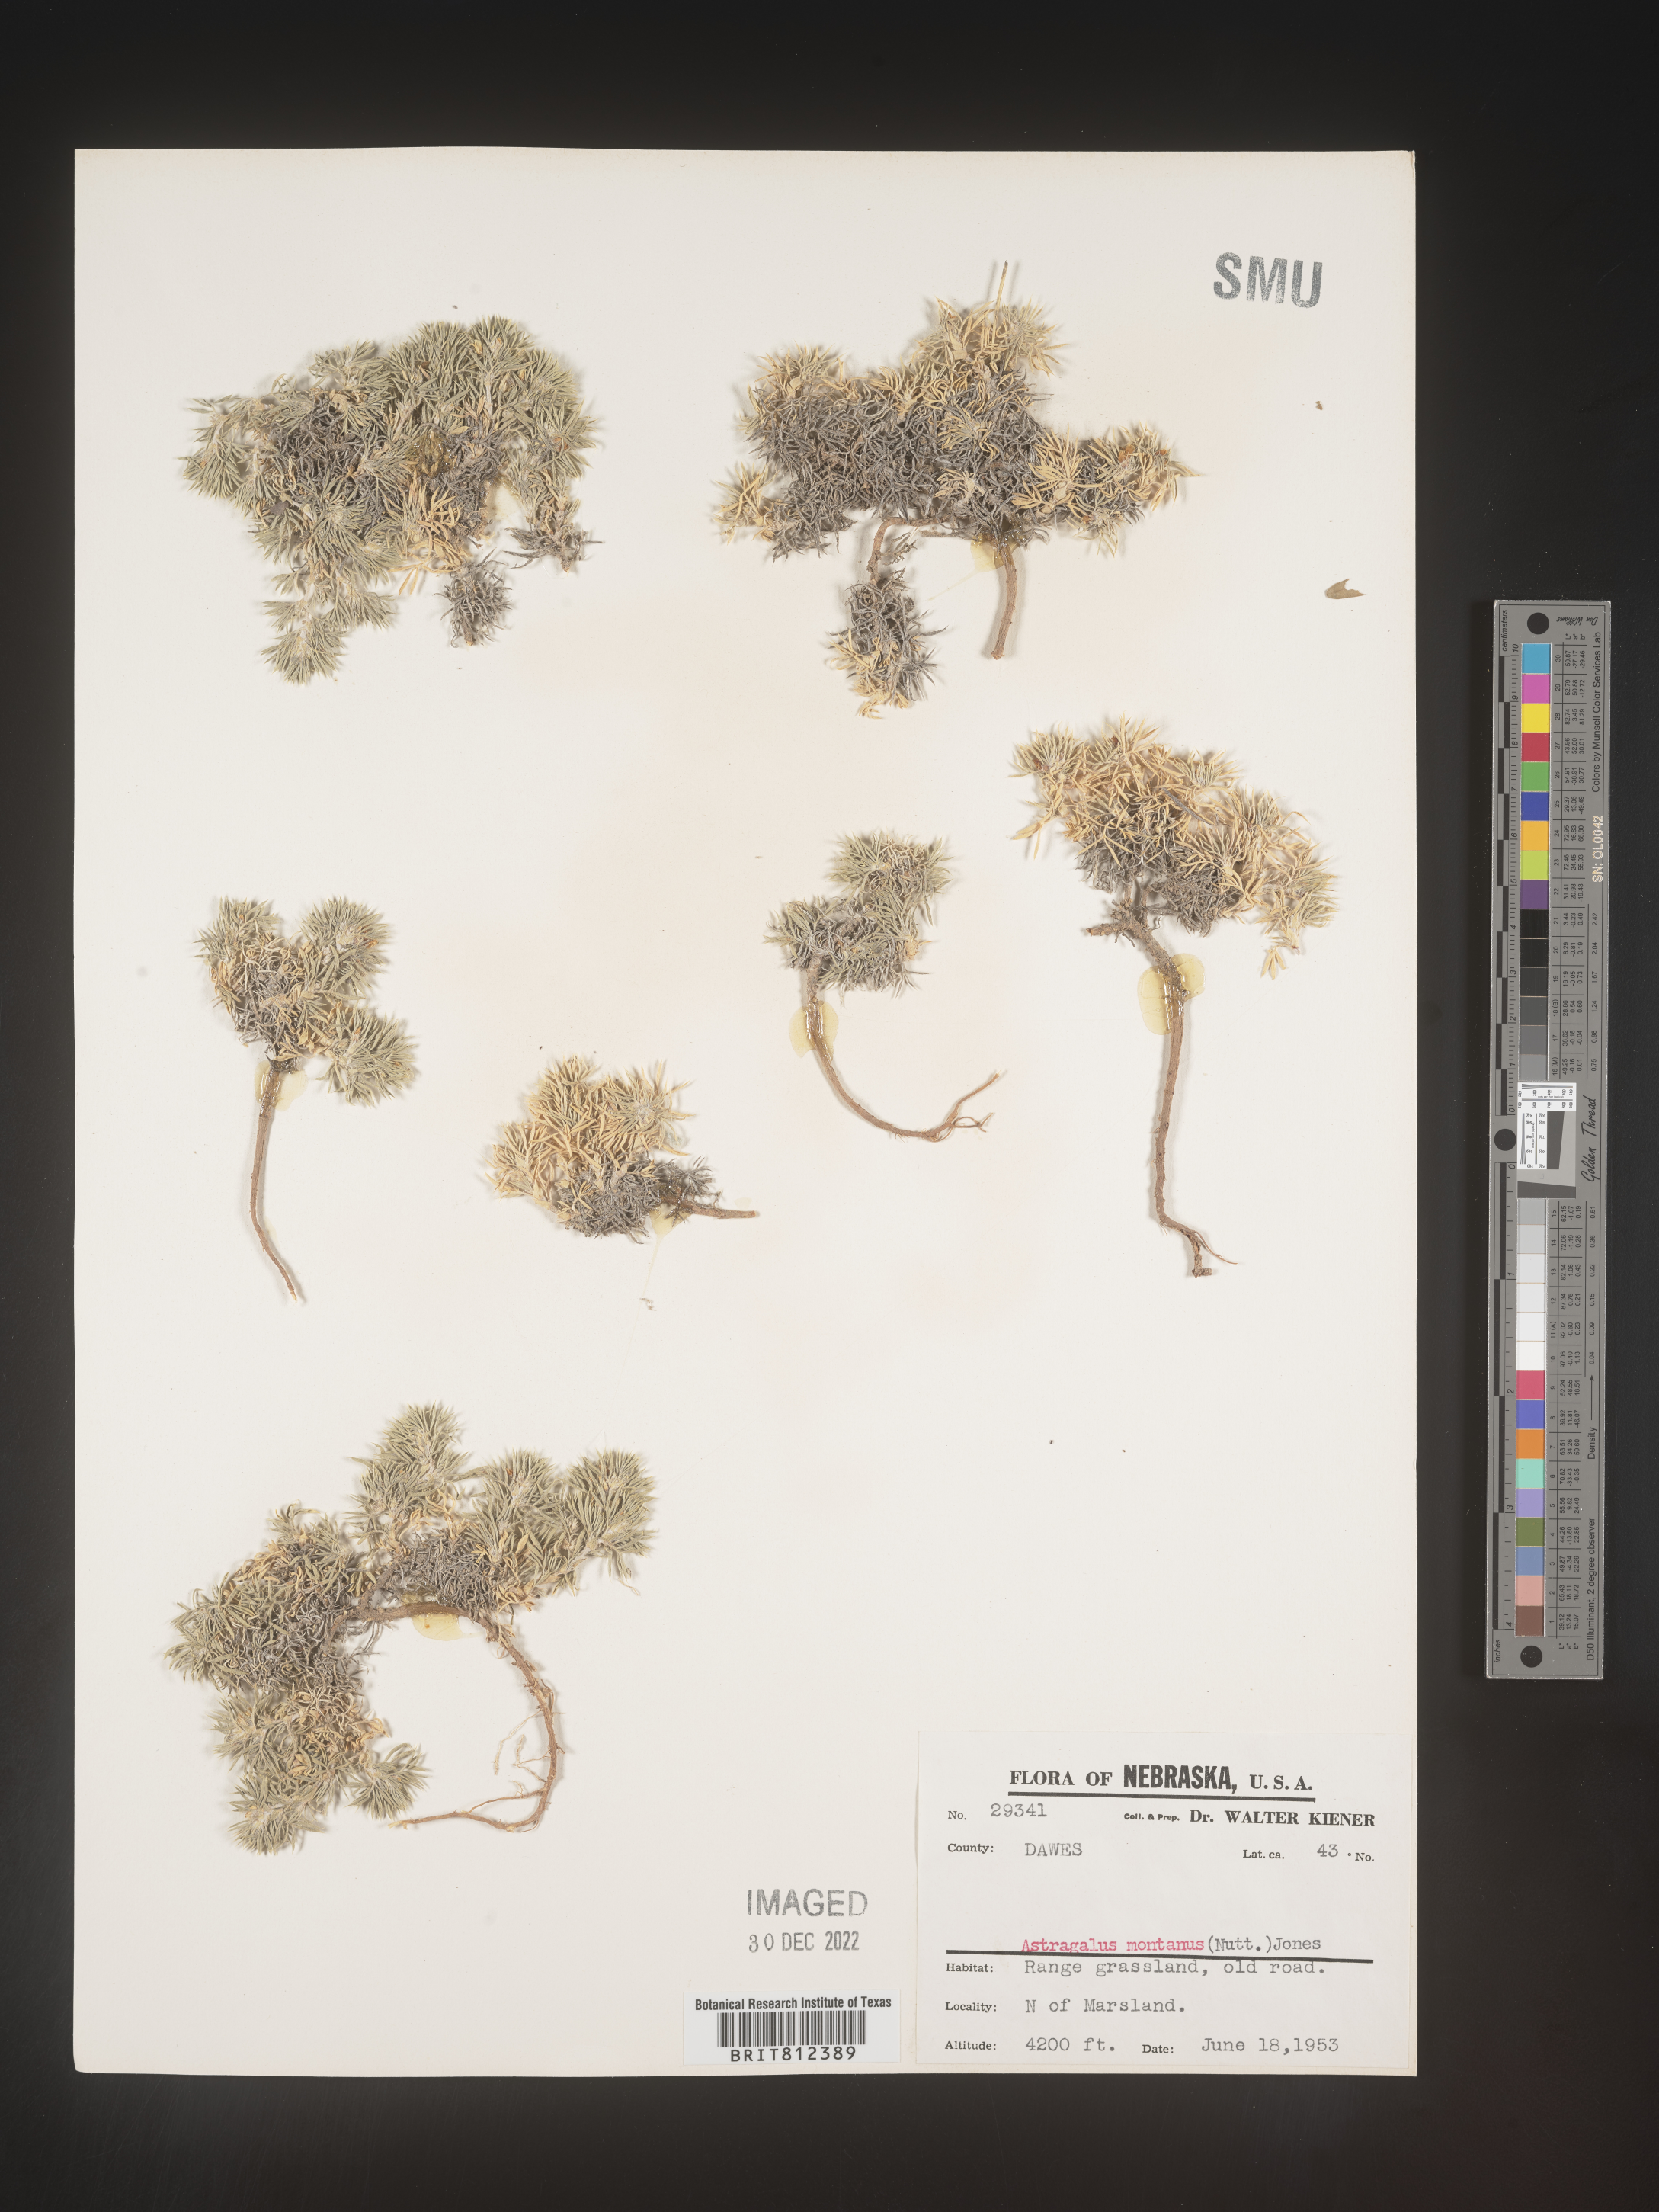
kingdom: Plantae
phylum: Tracheophyta
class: Magnoliopsida
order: Fabales
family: Fabaceae
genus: Astragalus
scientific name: Astragalus
